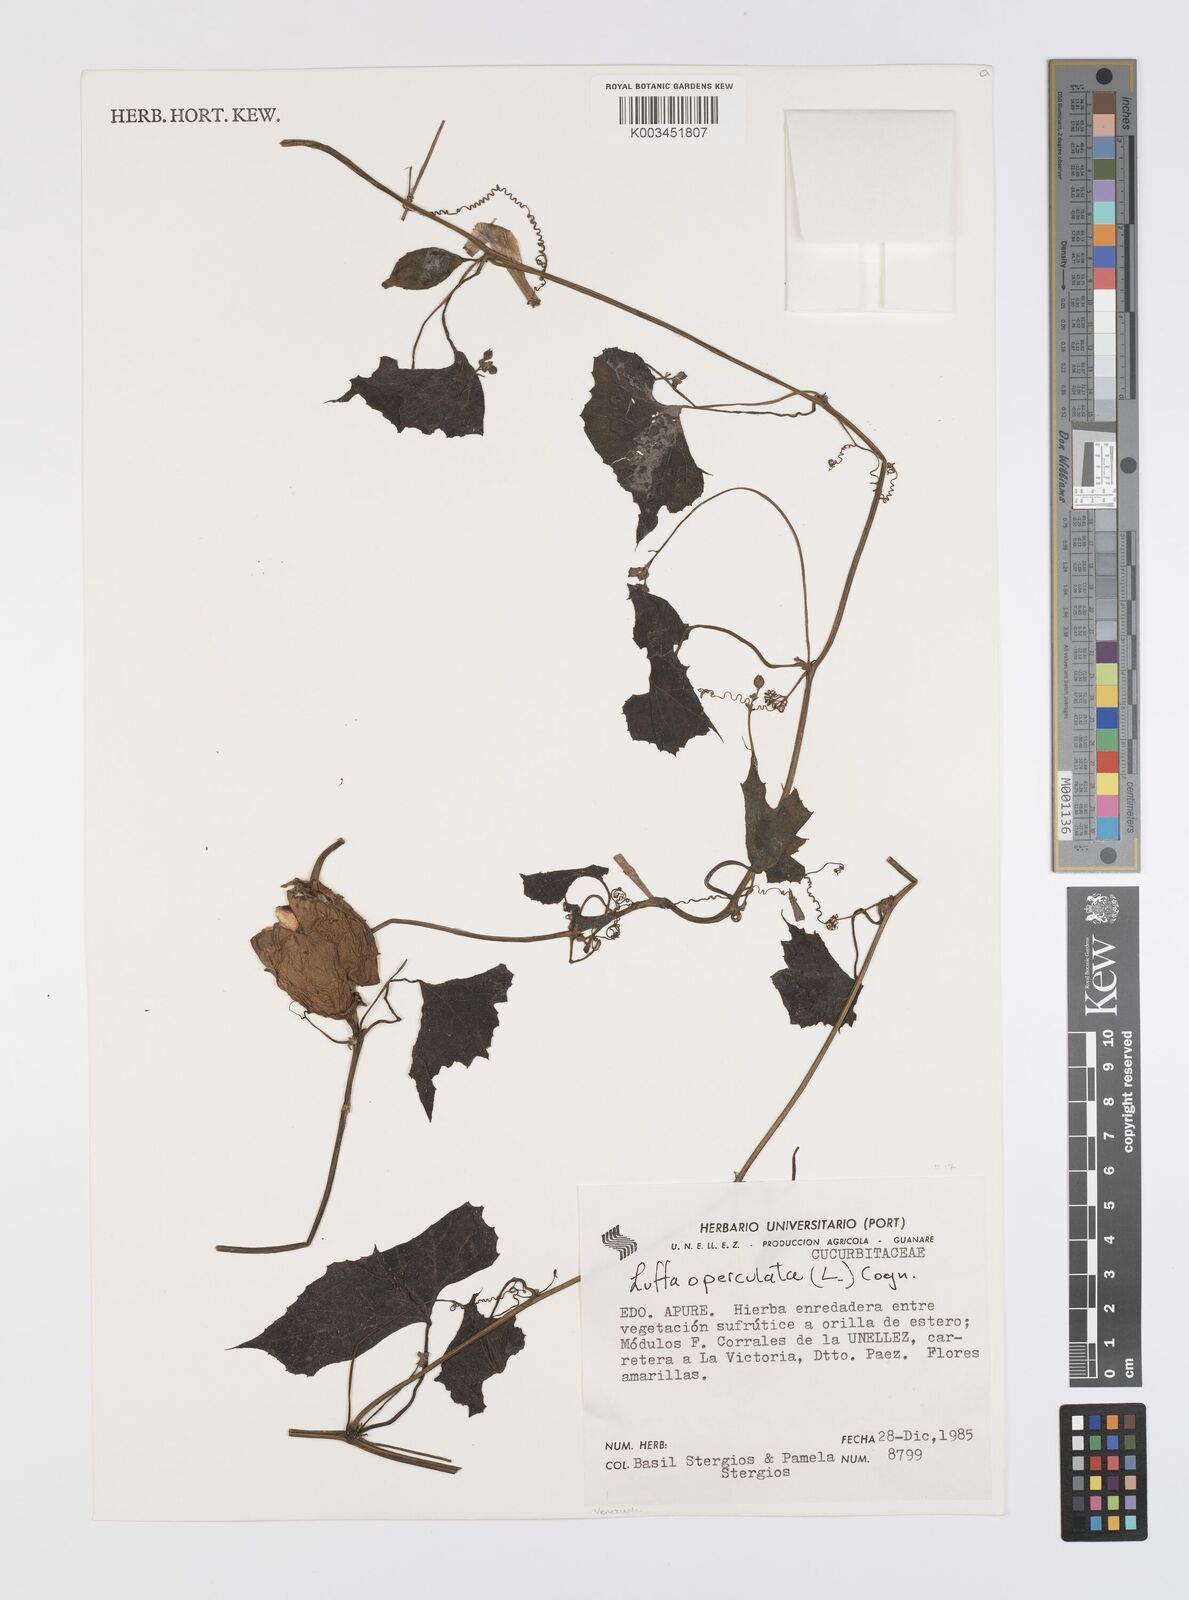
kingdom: Plantae
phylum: Tracheophyta
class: Magnoliopsida
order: Cucurbitales
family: Cucurbitaceae
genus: Luffa
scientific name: Luffa operculata
